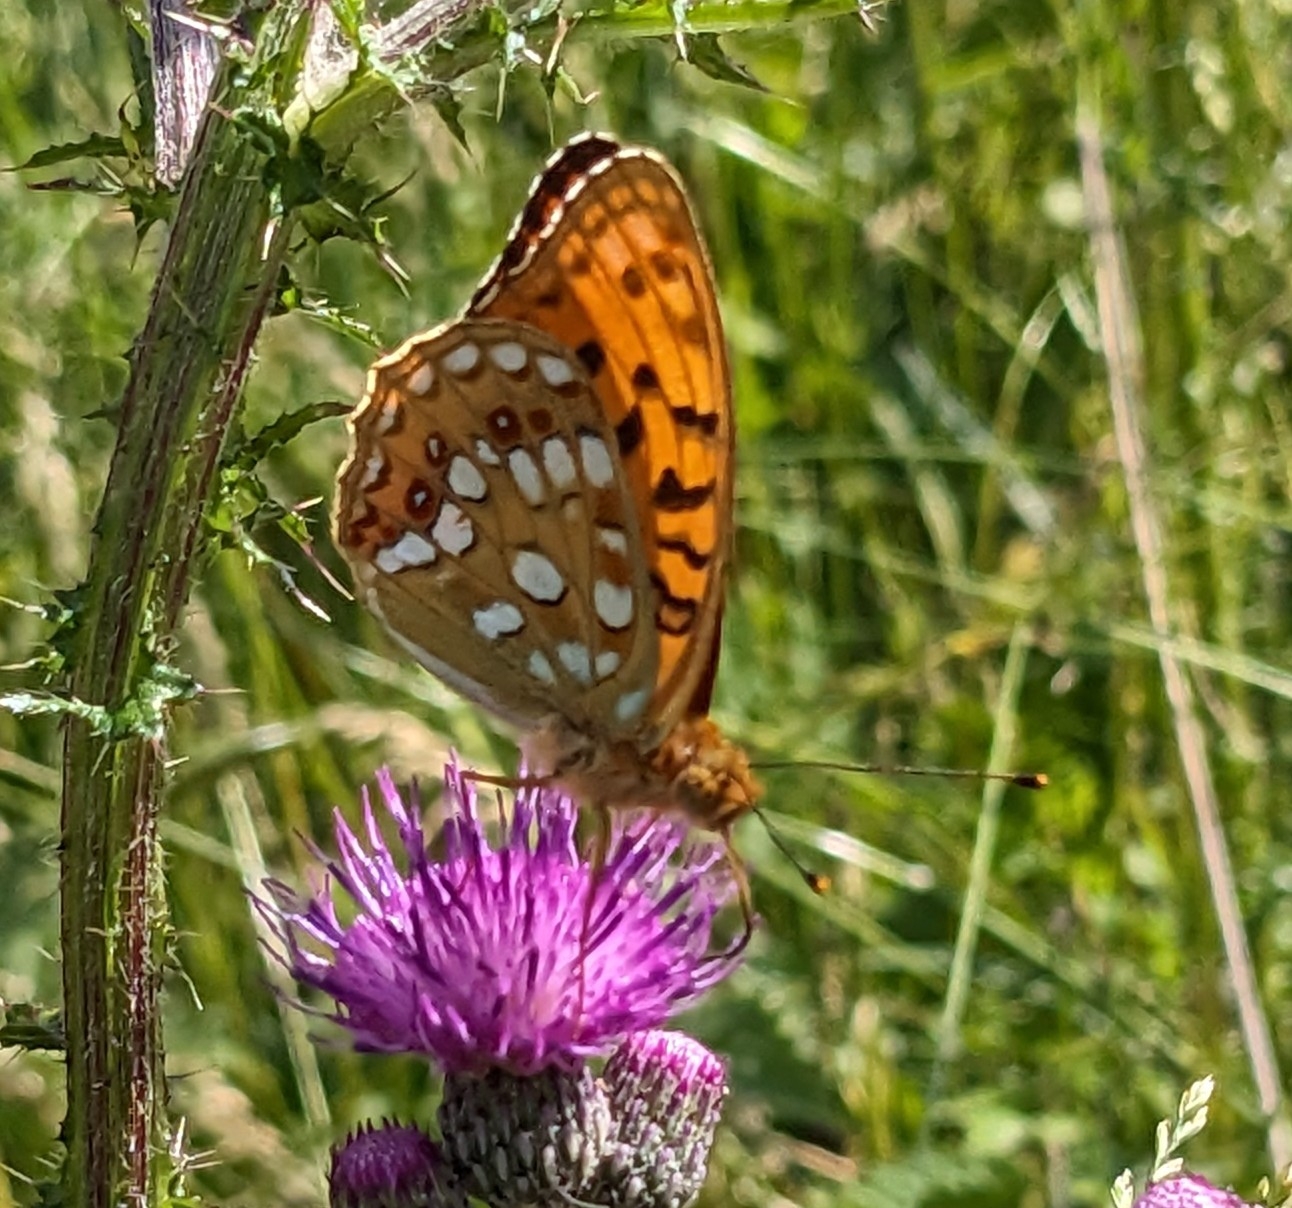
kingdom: Animalia
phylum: Arthropoda
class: Insecta
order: Lepidoptera
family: Nymphalidae
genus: Fabriciana
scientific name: Fabriciana adippe
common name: Skovperlemorsommerfugl
